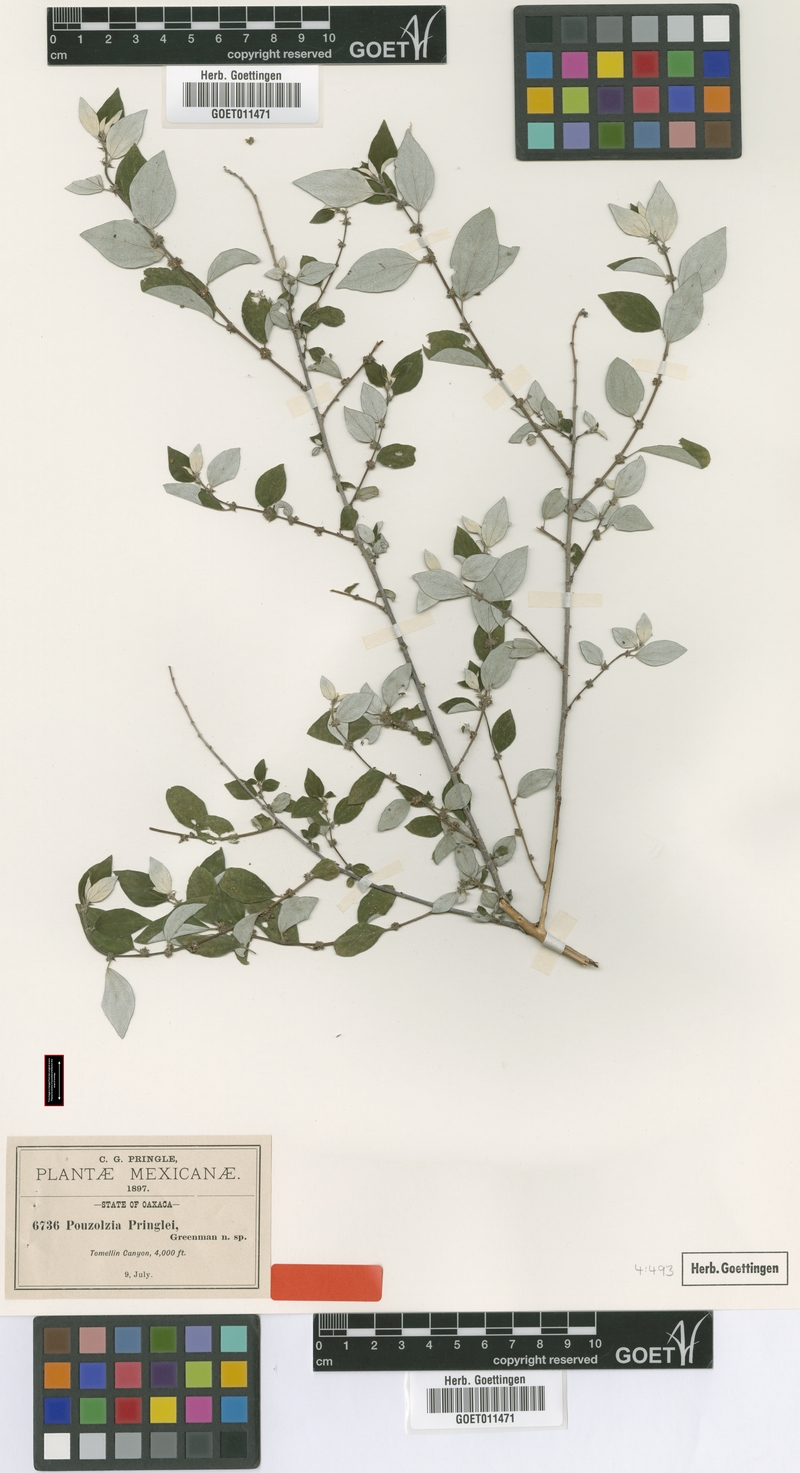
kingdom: Plantae
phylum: Tracheophyta
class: Magnoliopsida
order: Rosales
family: Urticaceae
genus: Pouzolzia
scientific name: Pouzolzia pringlei
